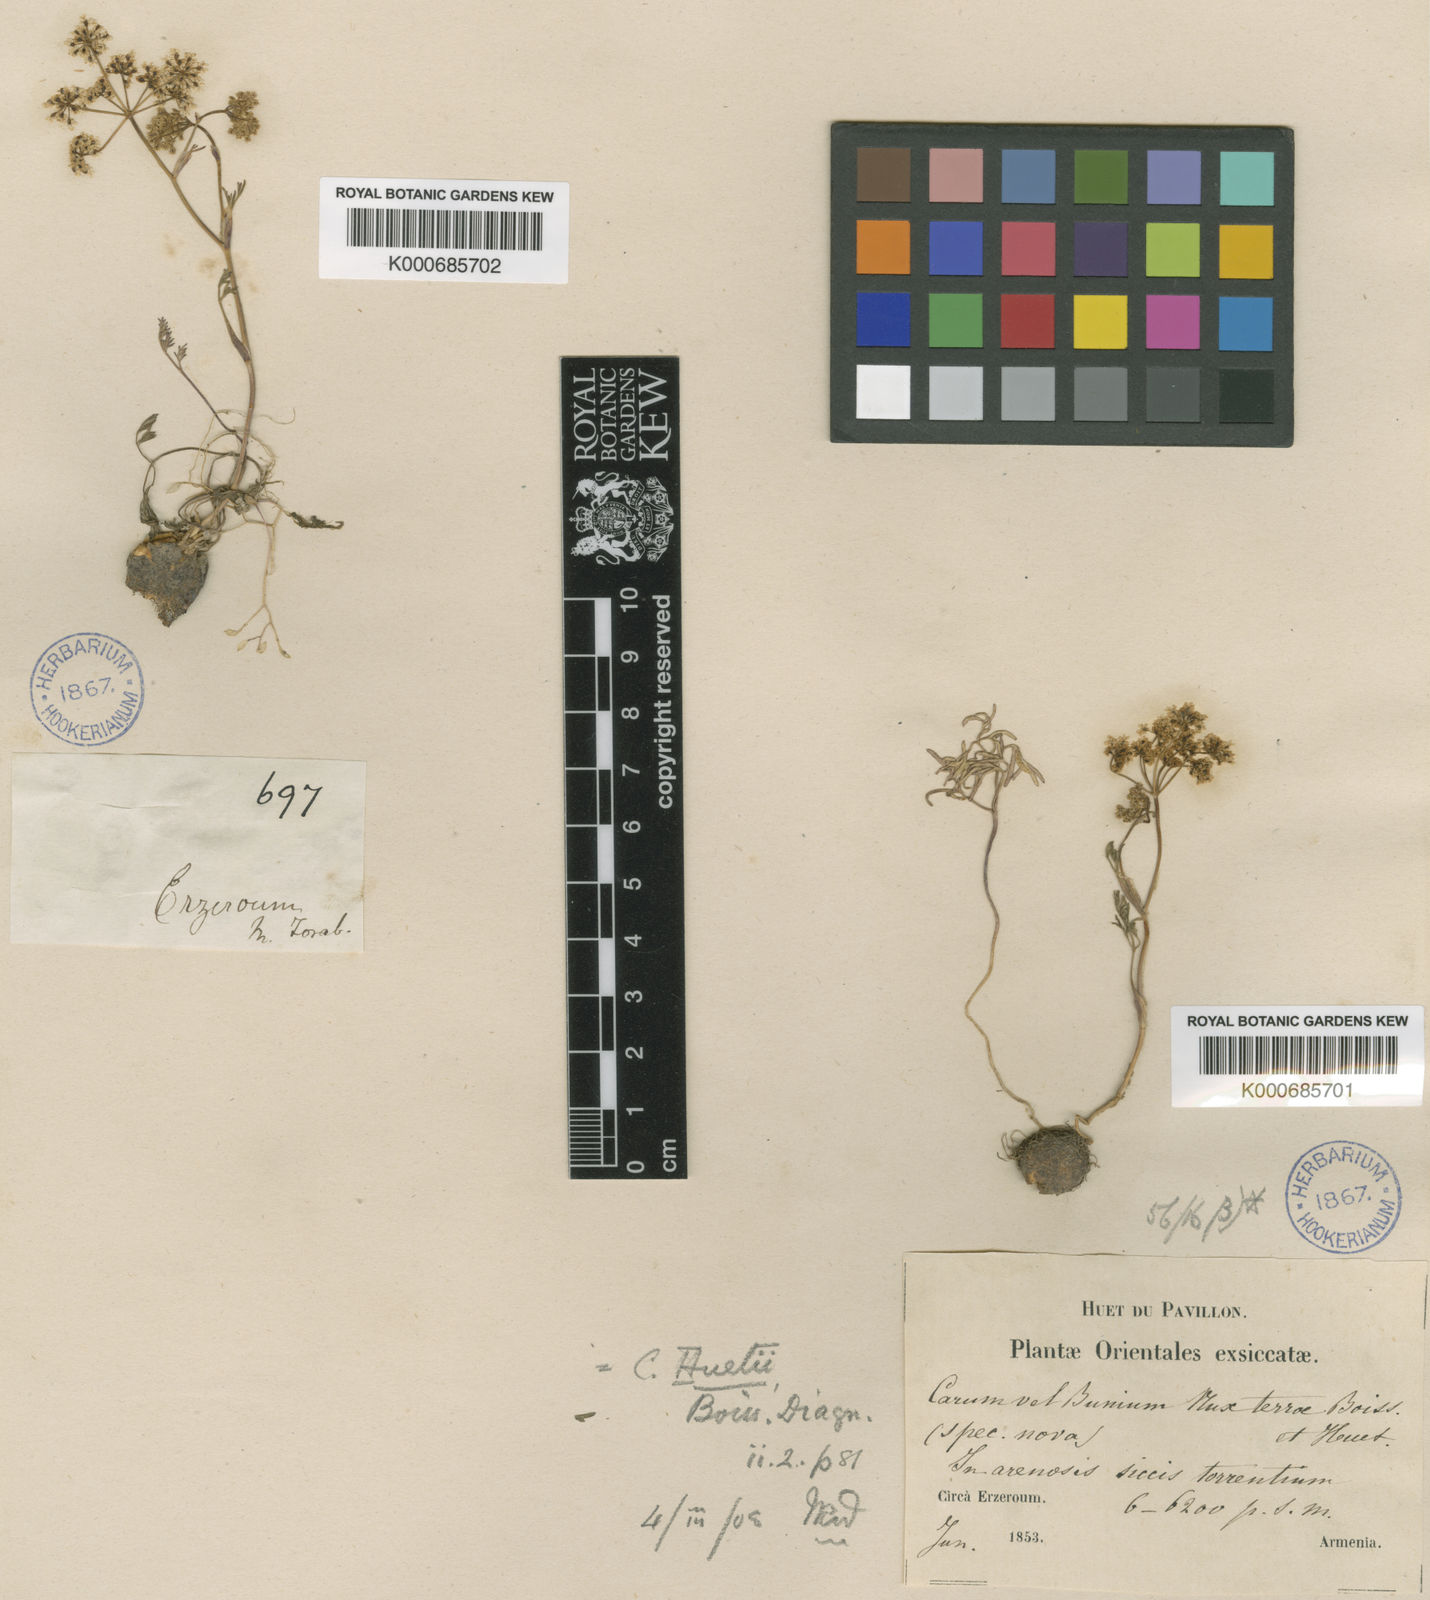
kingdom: Plantae
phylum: Tracheophyta
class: Magnoliopsida
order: Apiales
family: Apiaceae
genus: Bunium
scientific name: Bunium bourgaei
